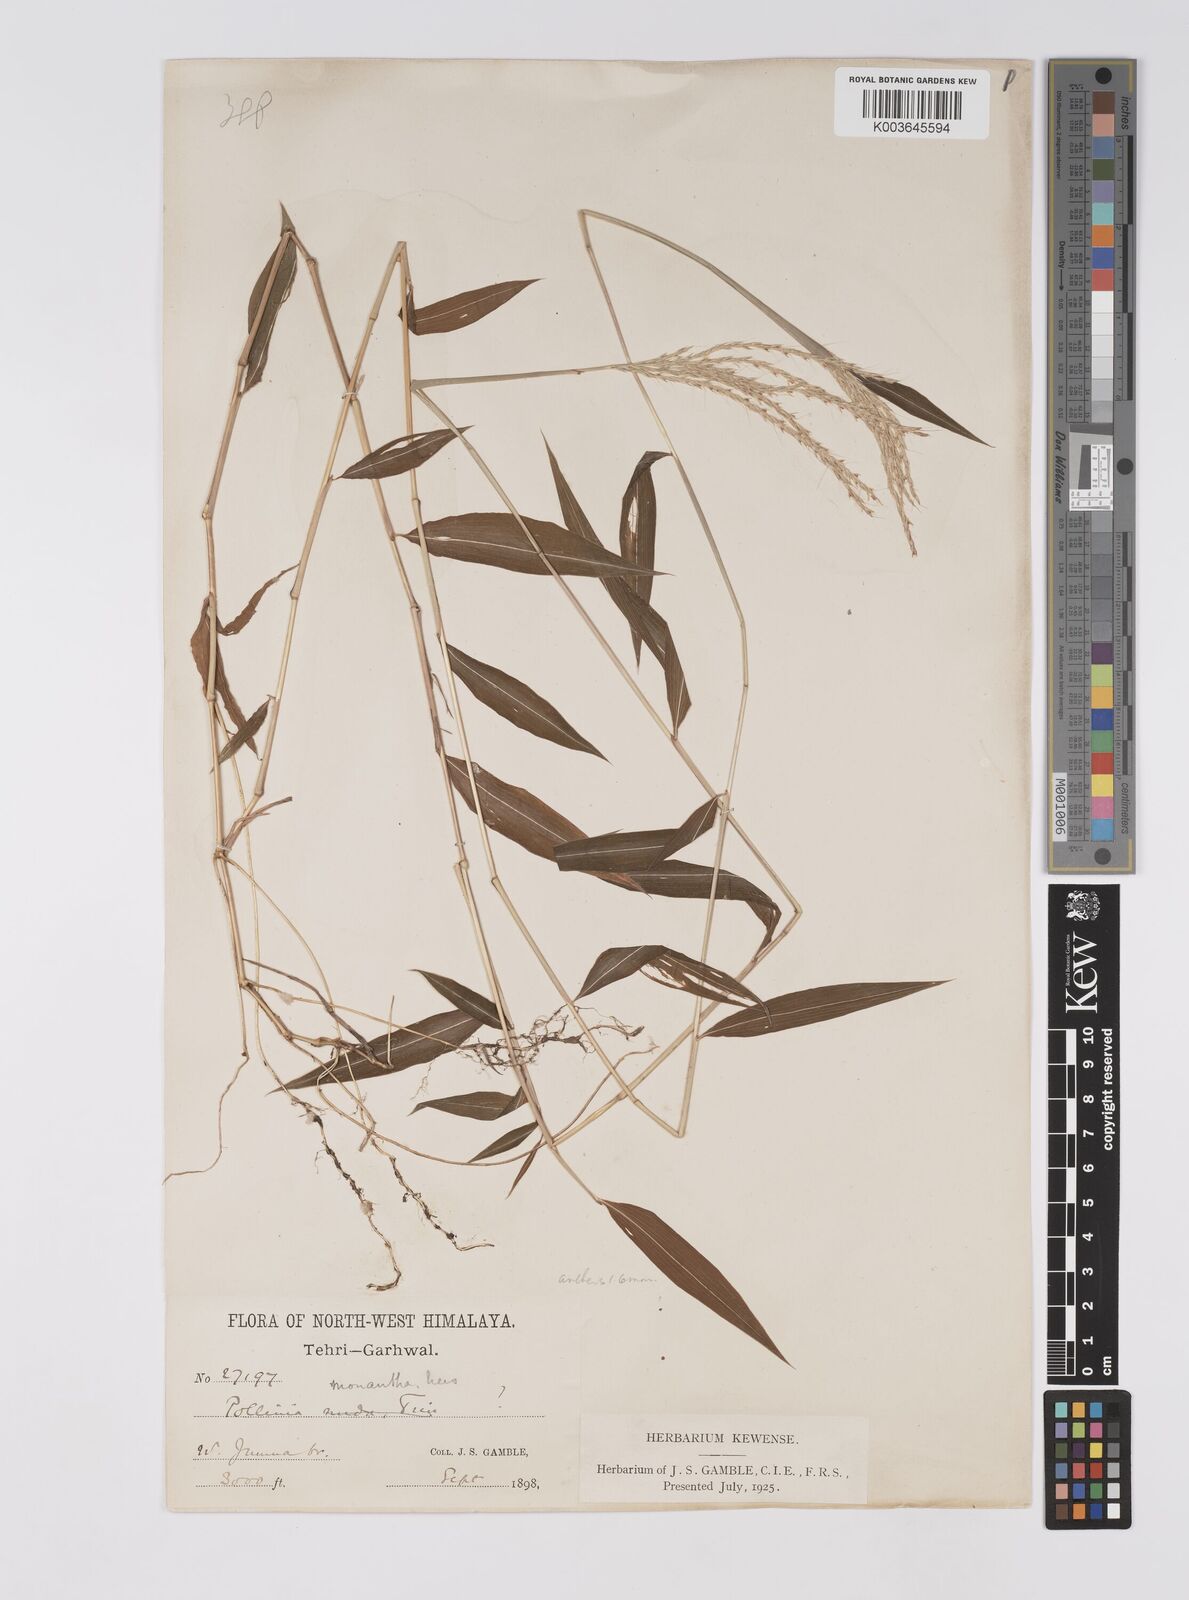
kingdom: Plantae
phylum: Tracheophyta
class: Liliopsida
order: Poales
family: Poaceae
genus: Microstegium
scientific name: Microstegium fasciculatum
